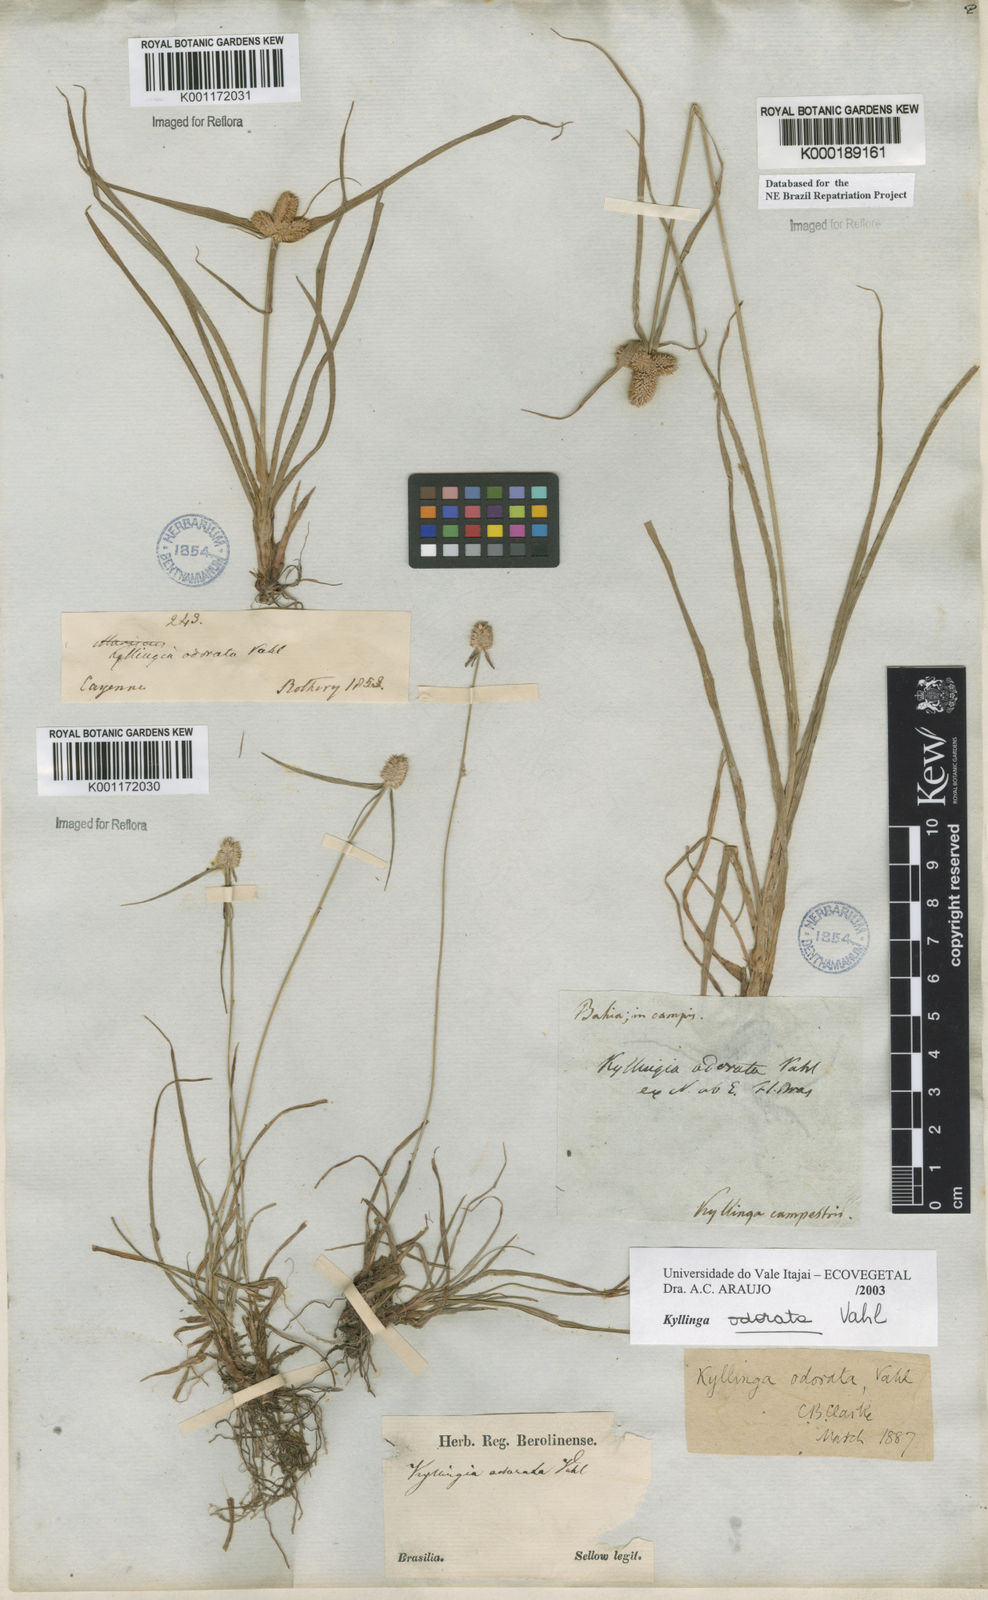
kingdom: Plantae
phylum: Tracheophyta
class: Liliopsida
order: Poales
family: Cyperaceae
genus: Cyperus
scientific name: Cyperus sesquiflorus
